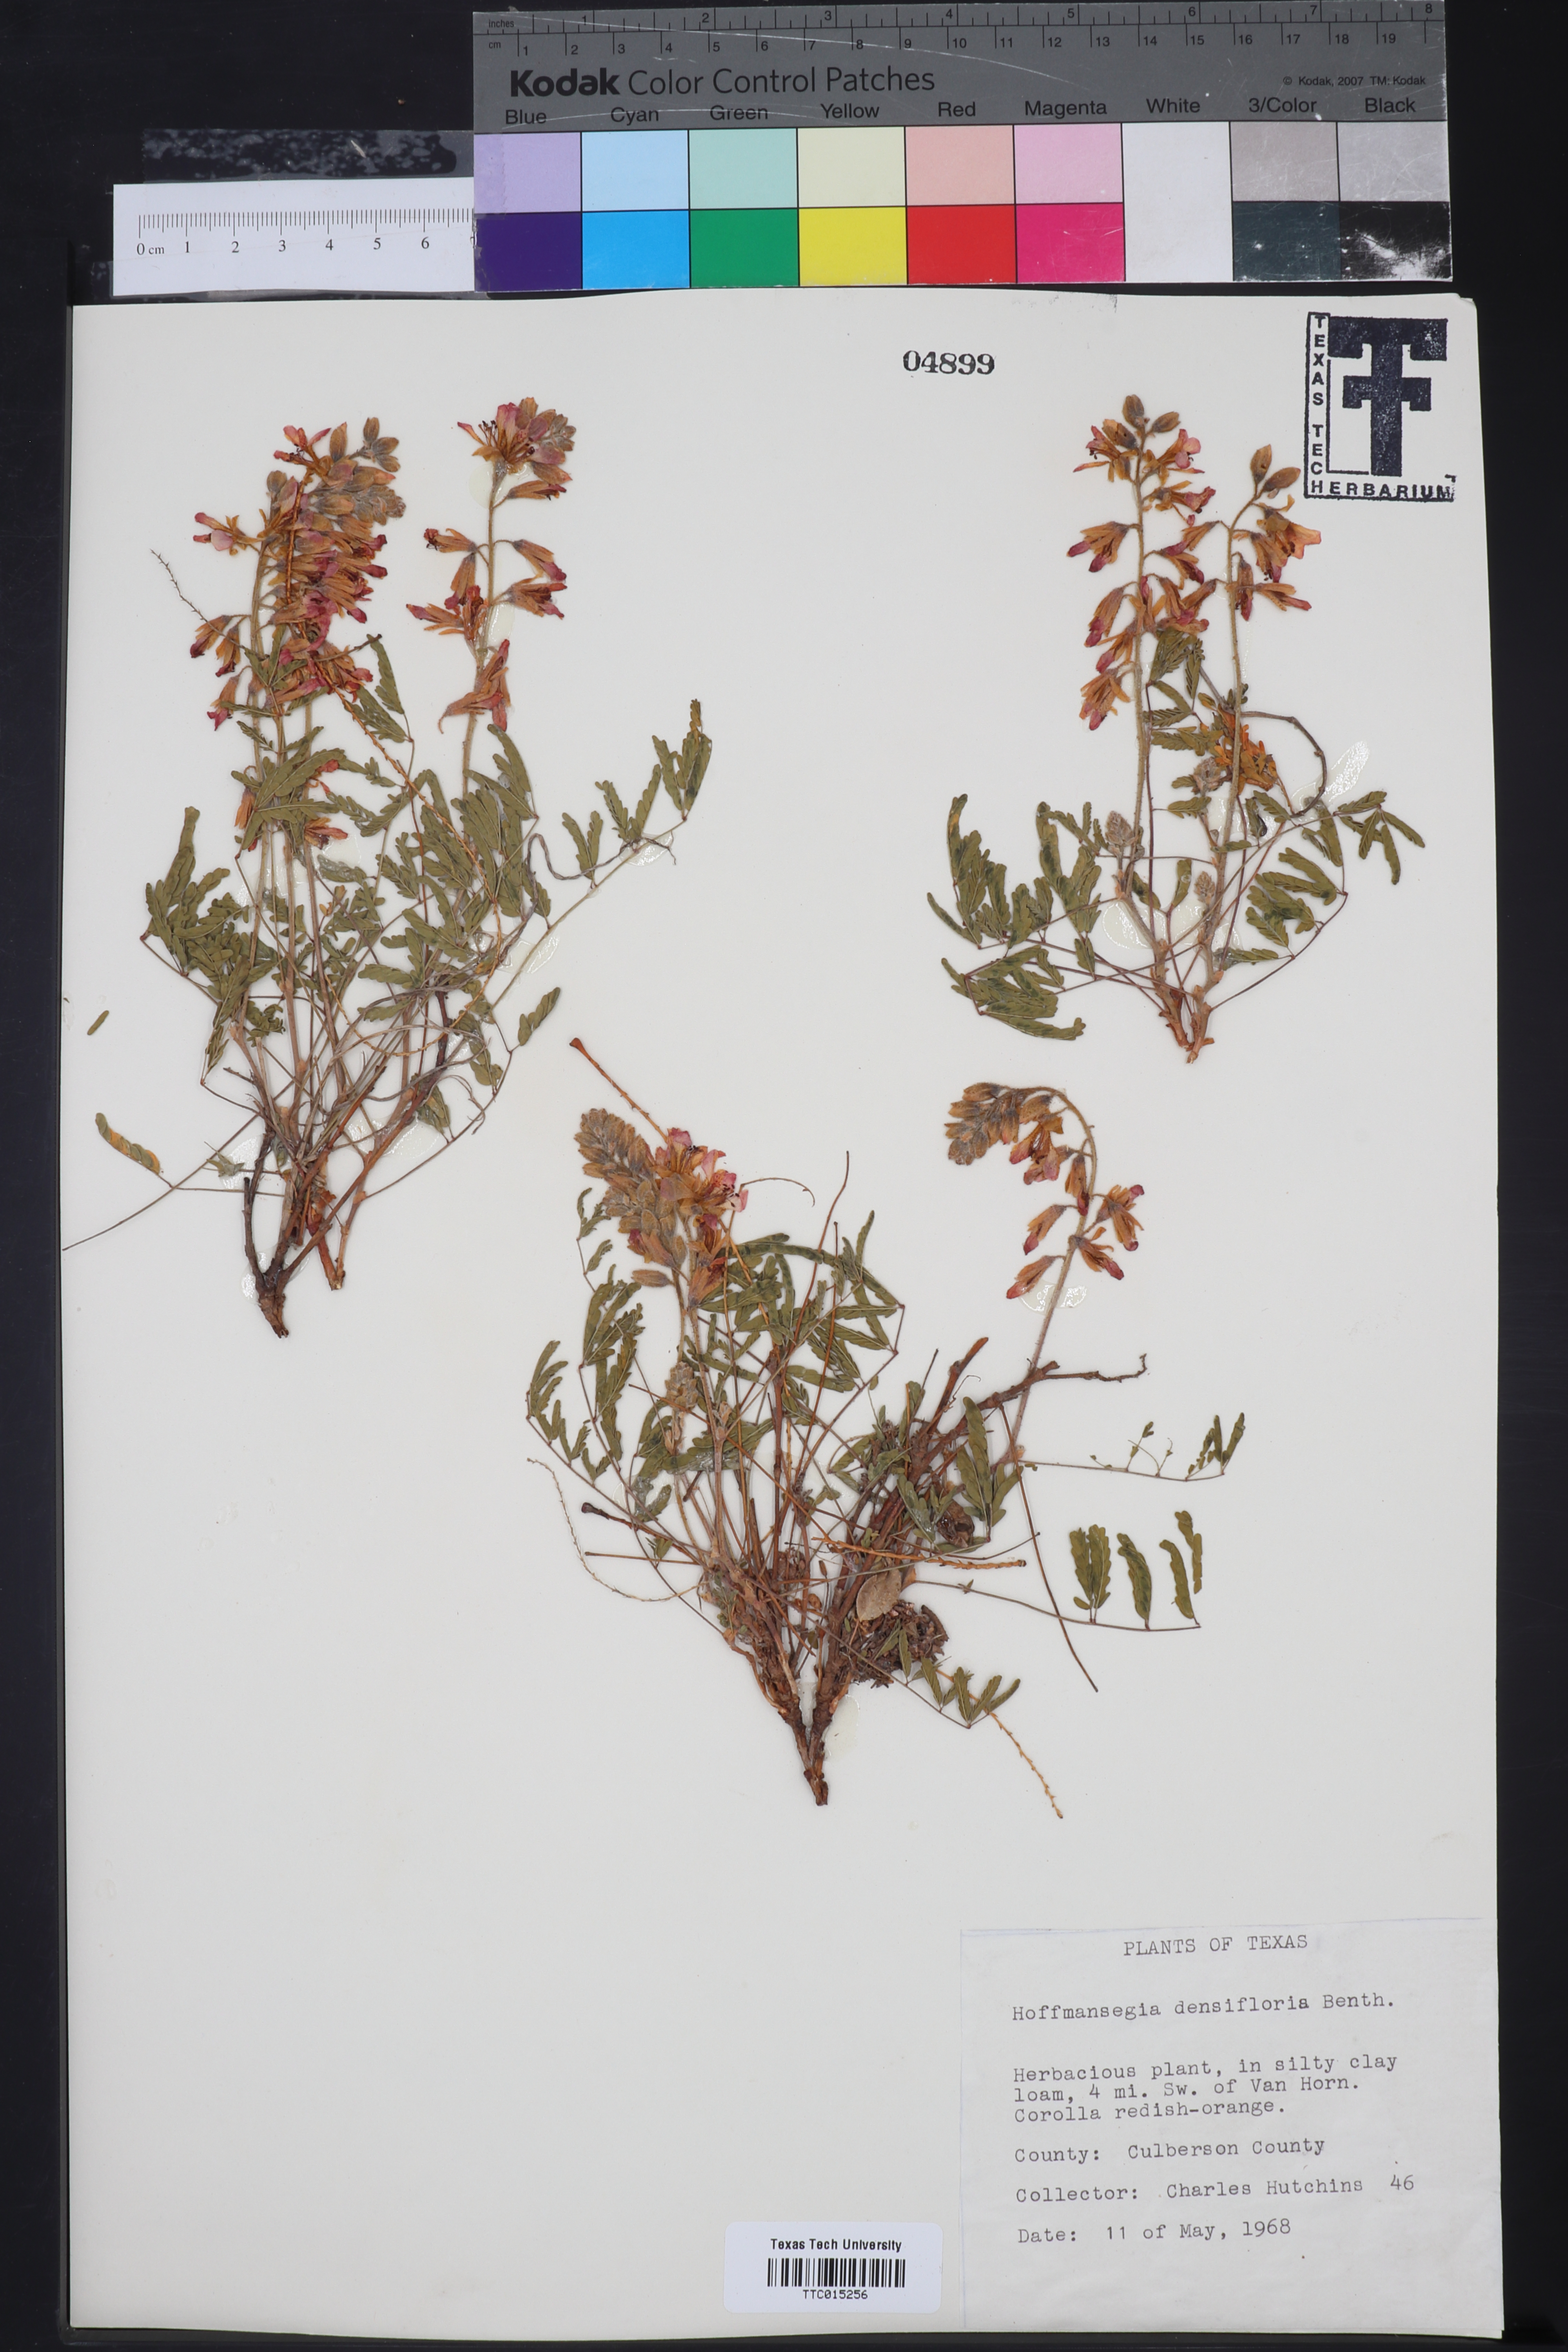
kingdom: Plantae
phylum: Tracheophyta
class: Magnoliopsida
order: Fabales
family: Fabaceae
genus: Hoffmannseggia
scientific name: Hoffmannseggia glauca
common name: Pignut
